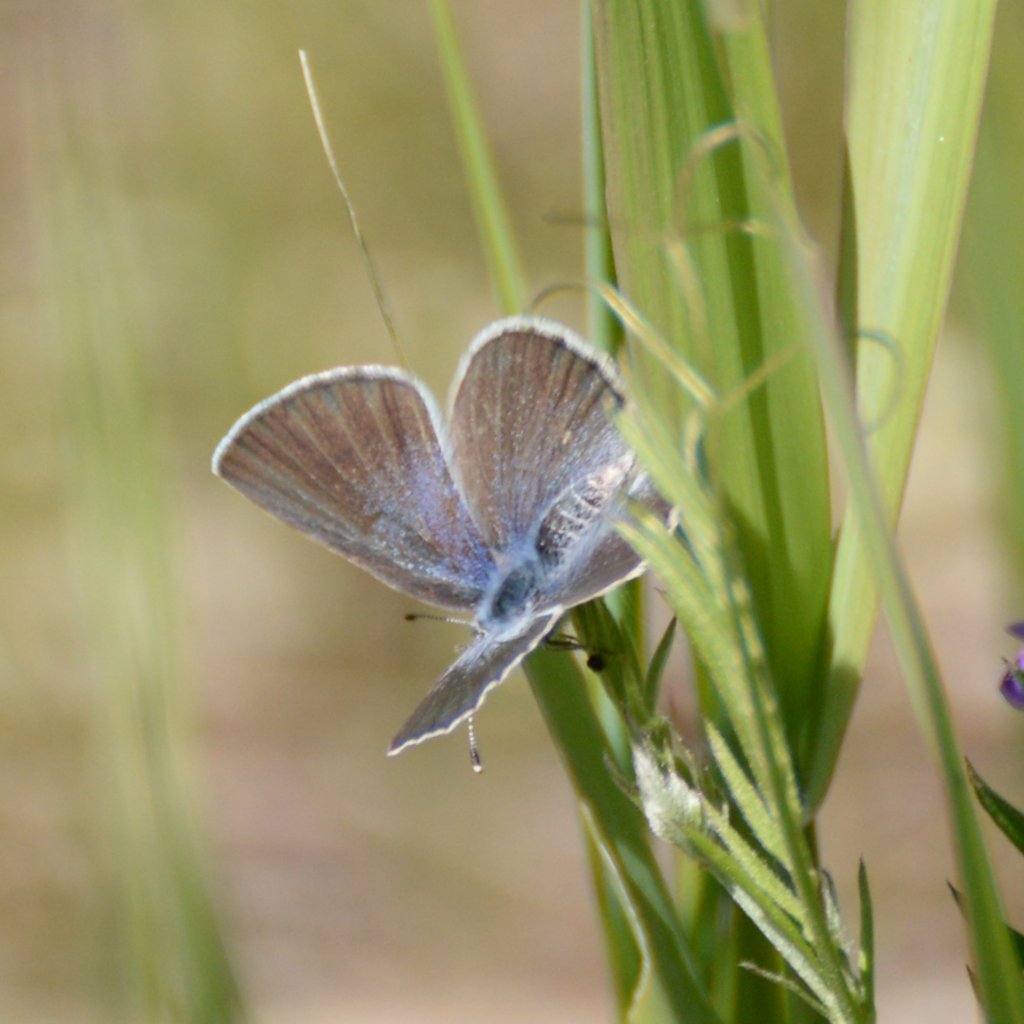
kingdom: Animalia
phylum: Arthropoda
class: Insecta
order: Lepidoptera
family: Lycaenidae
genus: Glaucopsyche
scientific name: Glaucopsyche lygdamus
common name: Silvery Blue
